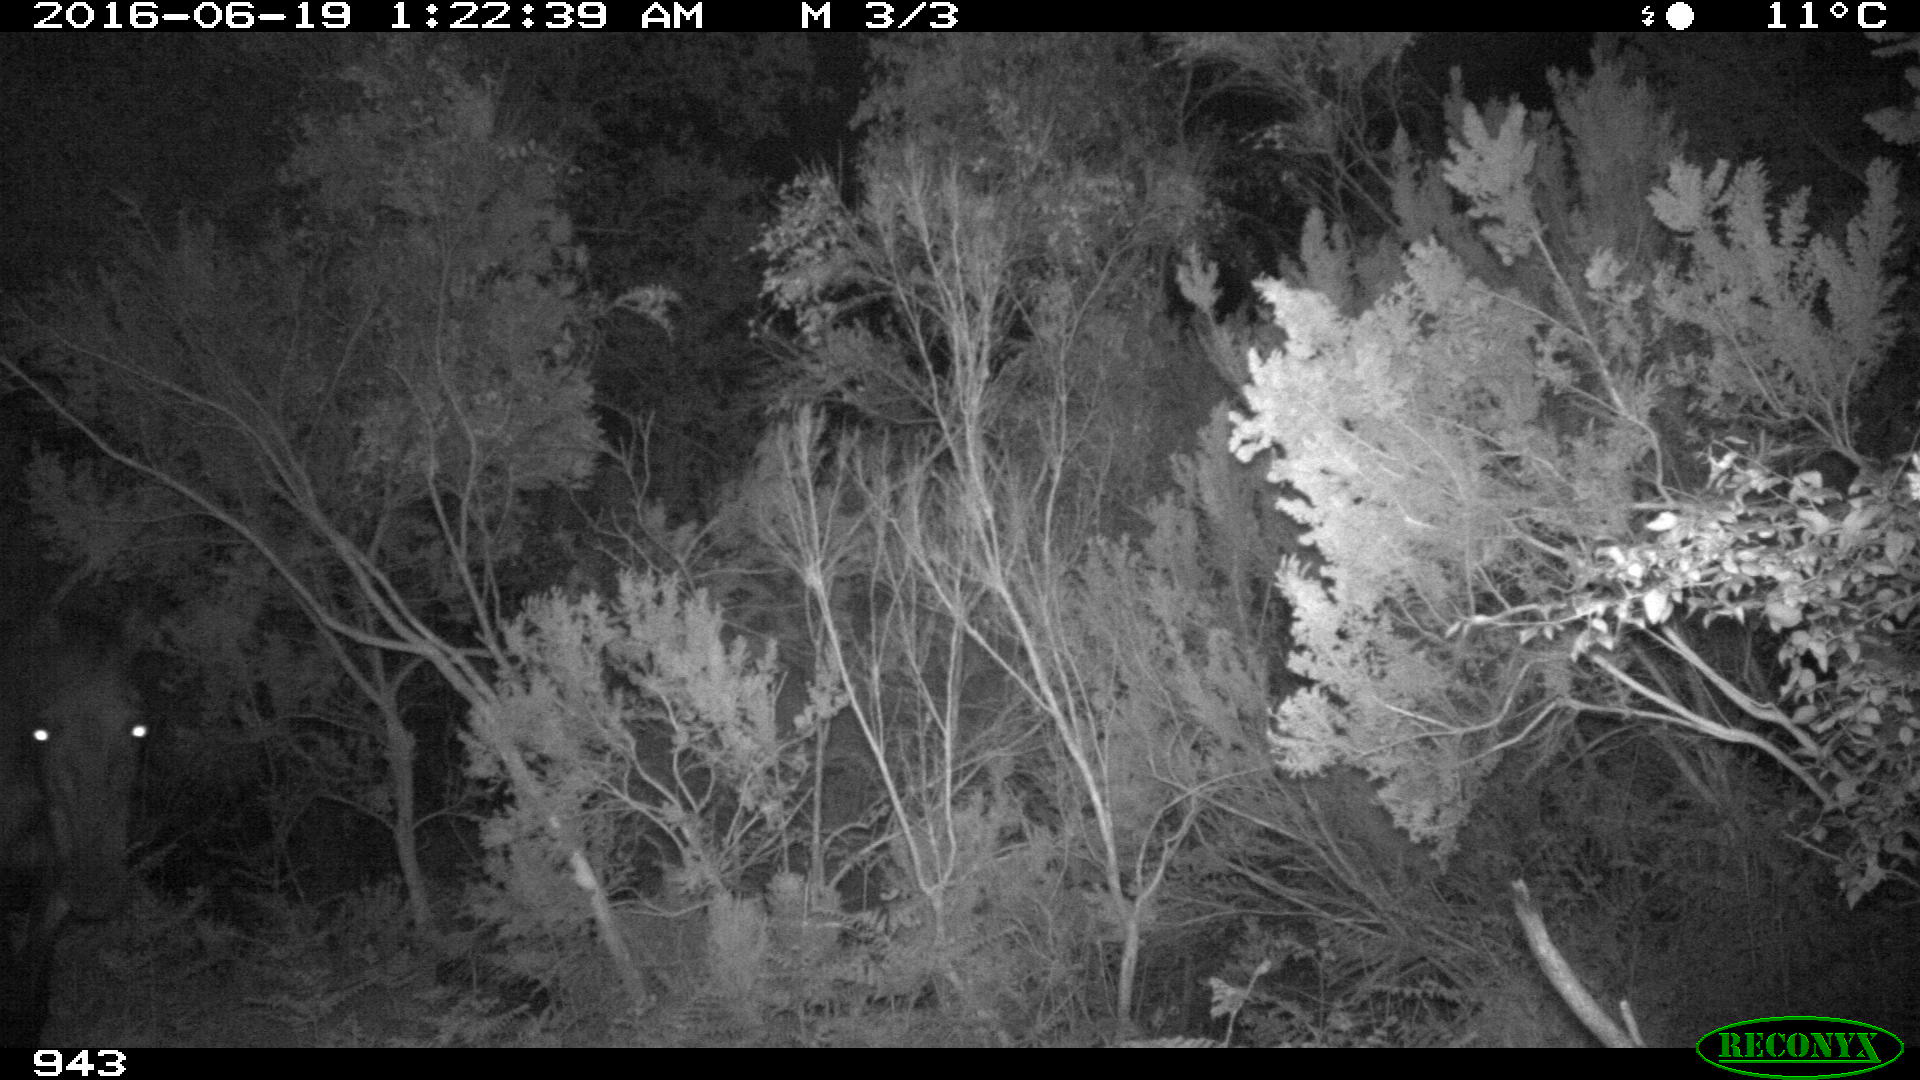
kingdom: Animalia
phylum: Chordata
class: Mammalia
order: Perissodactyla
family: Equidae
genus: Equus
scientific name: Equus caballus
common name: Horse
